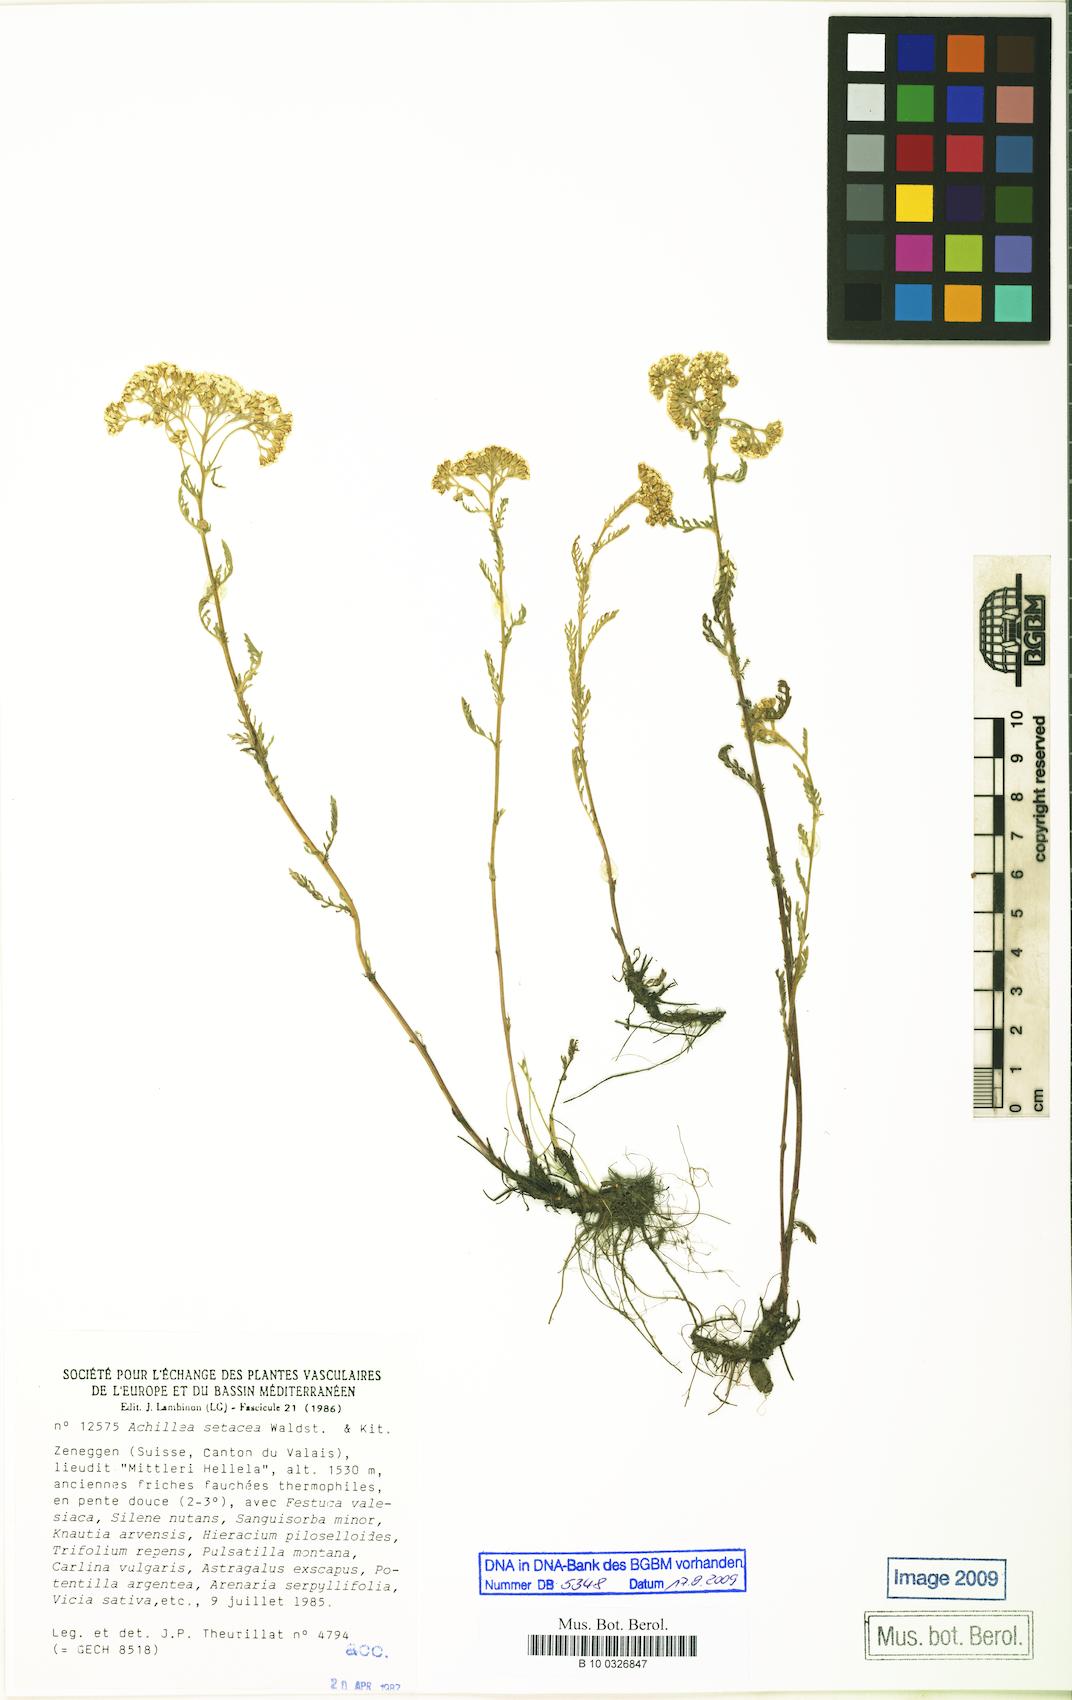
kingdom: Plantae
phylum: Tracheophyta
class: Magnoliopsida
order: Asterales
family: Asteraceae
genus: Achillea
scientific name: Achillea setacea
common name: Bristly yarrow
